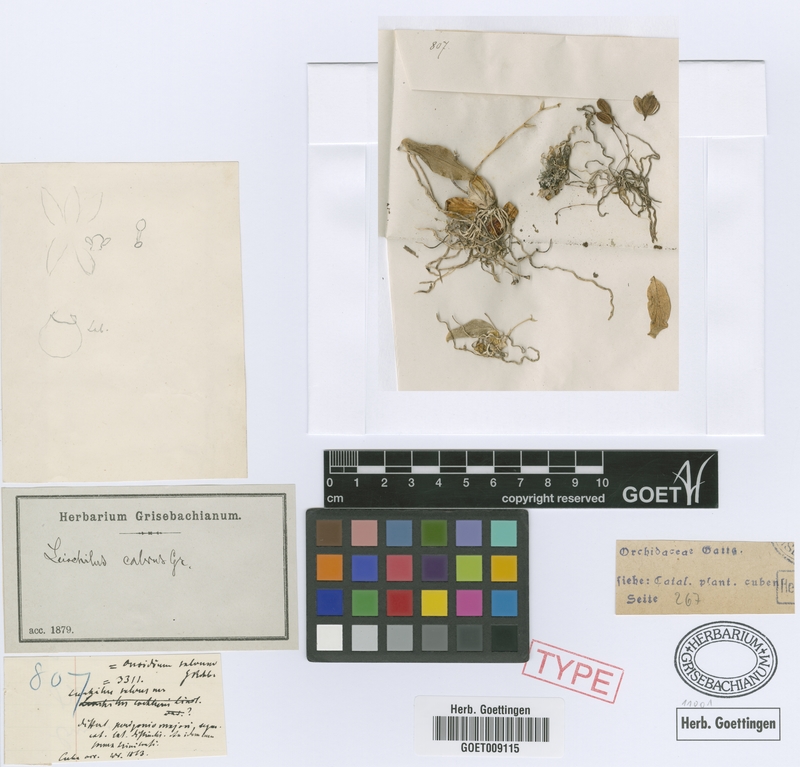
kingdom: Plantae
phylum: Tracheophyta
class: Liliopsida
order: Asparagales
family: Orchidaceae
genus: Leochilus
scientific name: Leochilus labiatus
